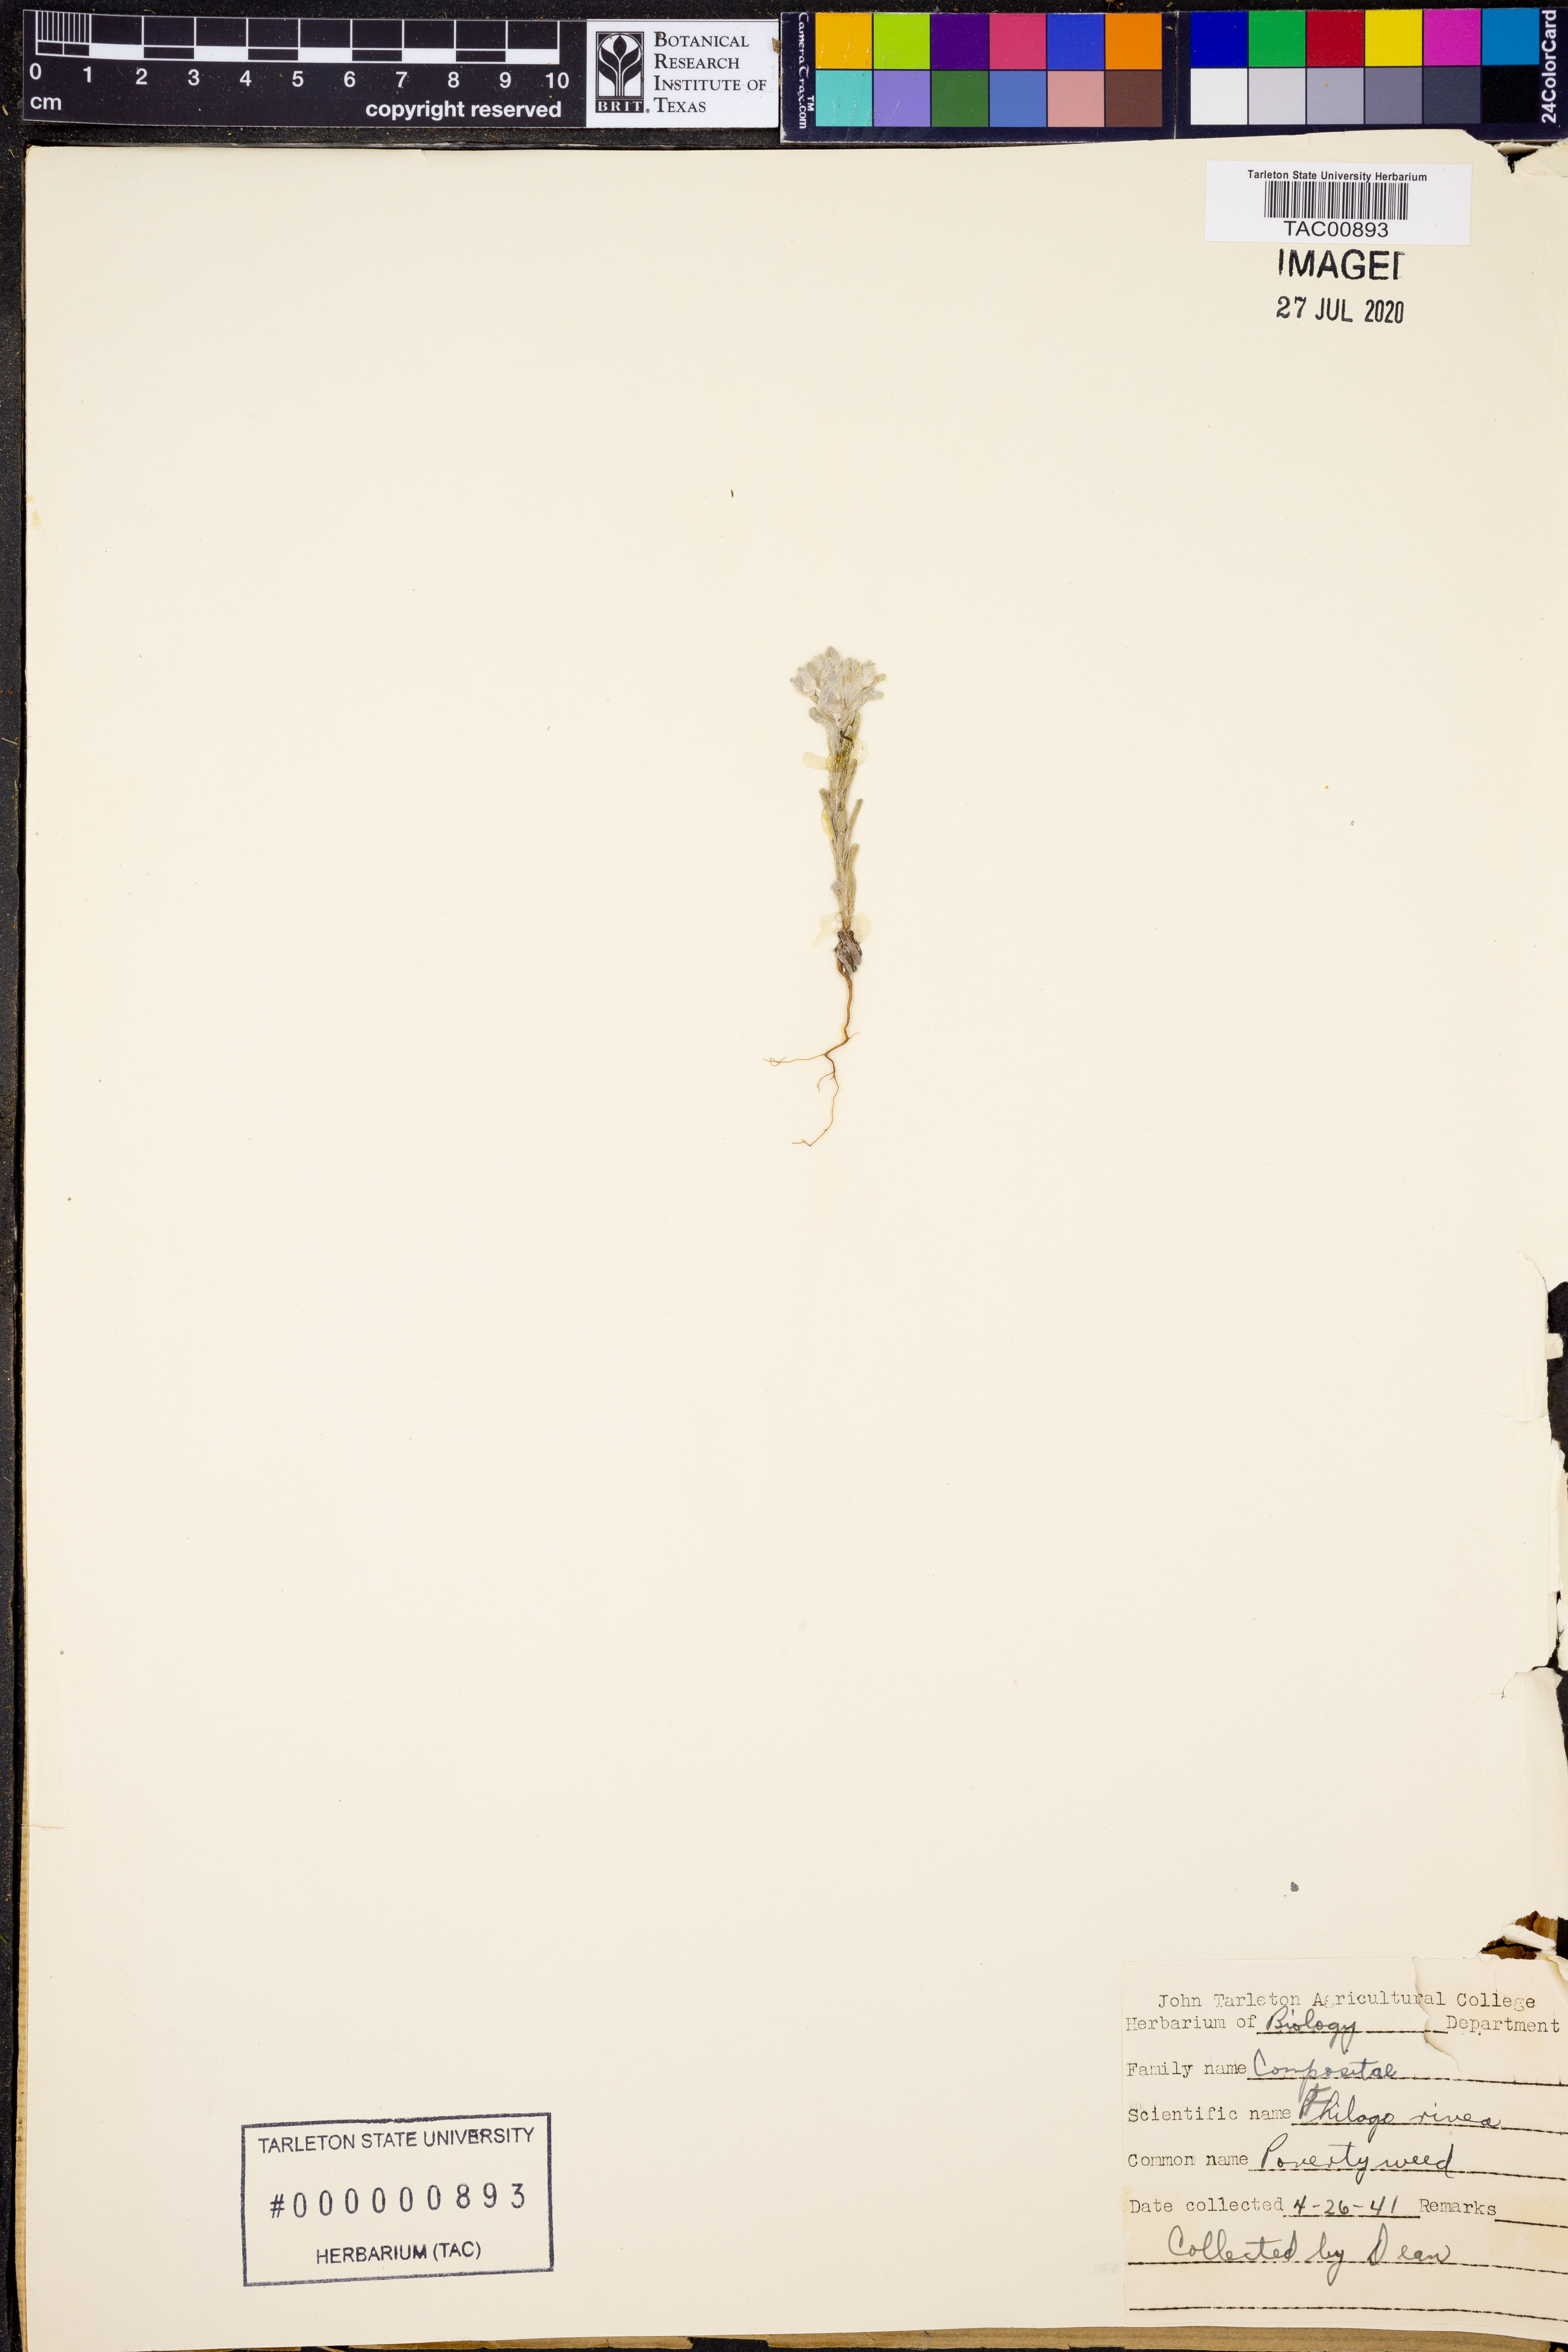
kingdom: Plantae
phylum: Tracheophyta
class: Magnoliopsida
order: Asterales
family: Asteraceae
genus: Diaperia
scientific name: Diaperia verna
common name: Many-stem rabbit-tobacco
